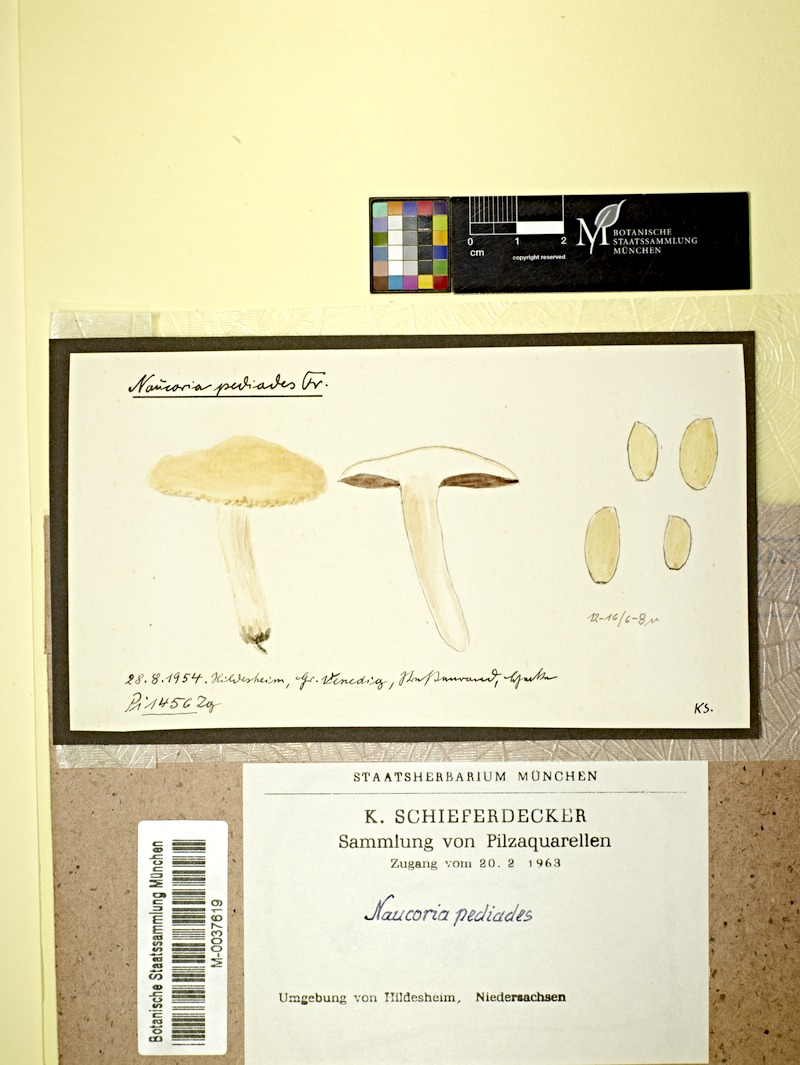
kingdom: Fungi
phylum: Basidiomycota
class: Agaricomycetes
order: Agaricales
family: Strophariaceae
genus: Agrocybe
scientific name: Agrocybe pediades
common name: Common fieldcap
